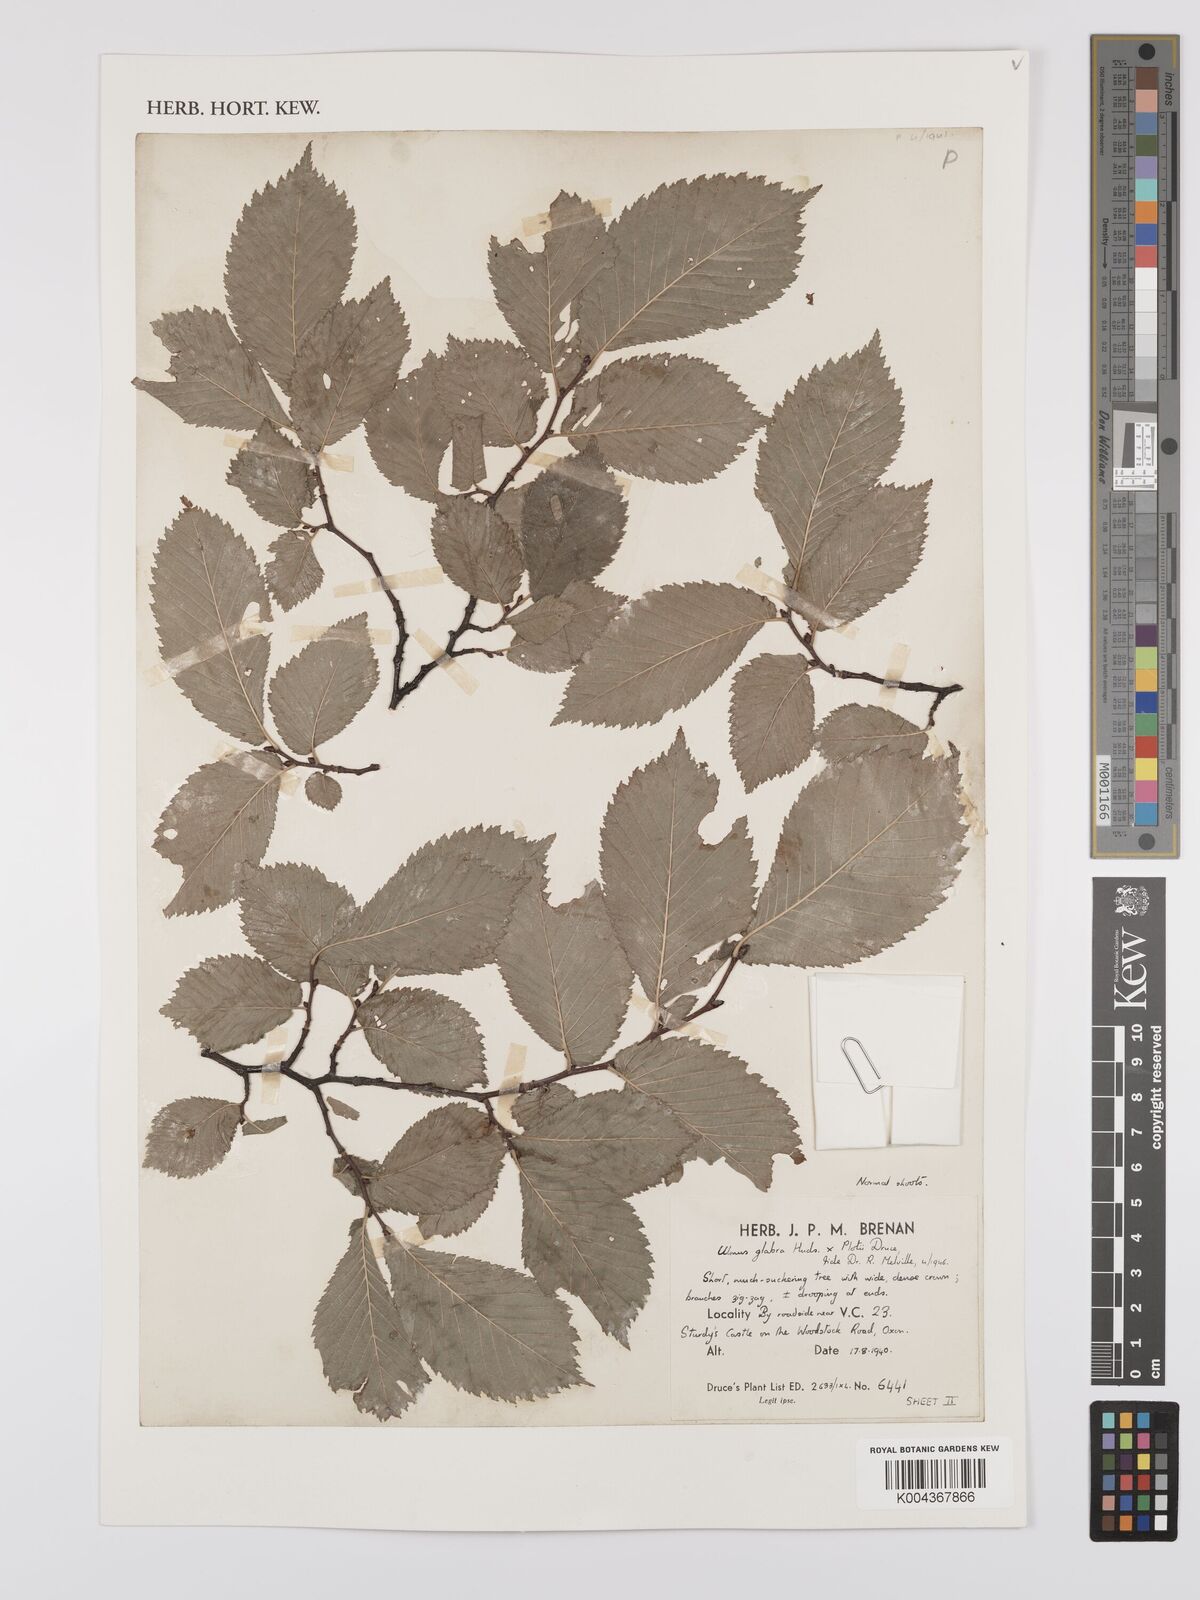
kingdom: Plantae
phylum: Tracheophyta
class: Magnoliopsida
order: Rosales
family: Ulmaceae
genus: Ulmus
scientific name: Ulmus
